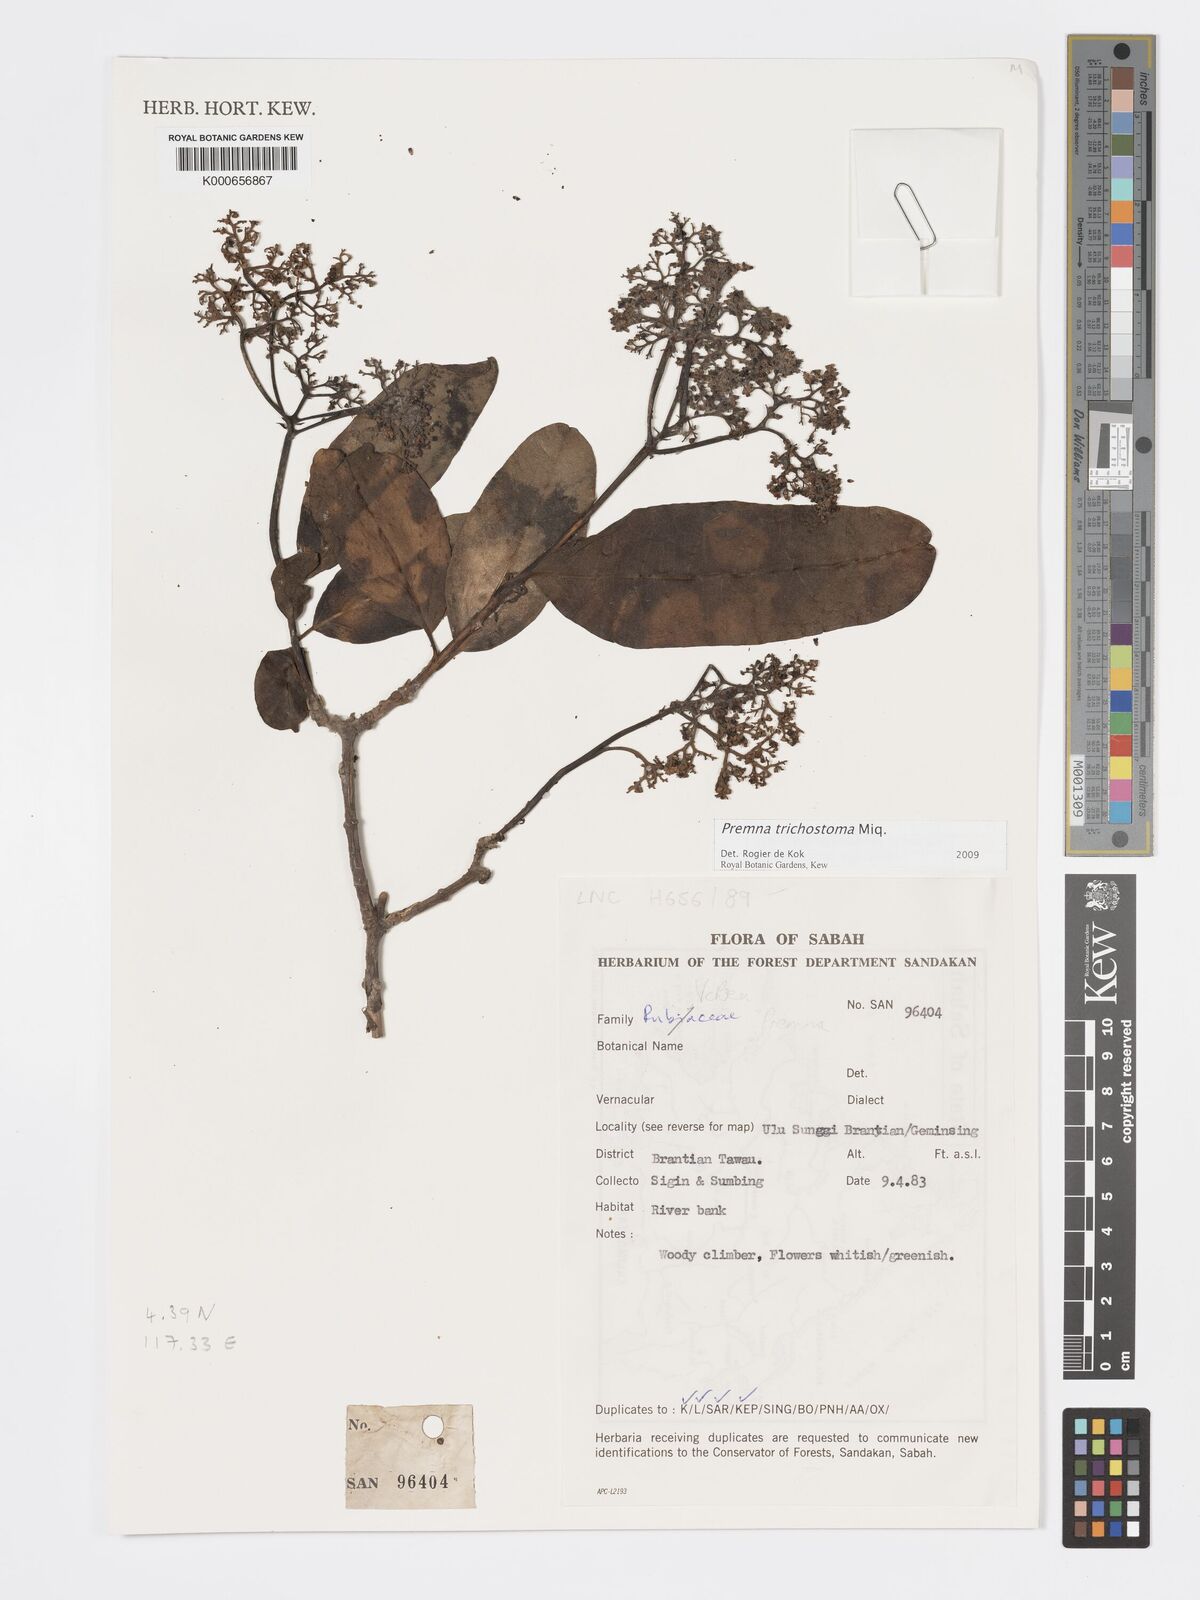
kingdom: Plantae
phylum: Tracheophyta
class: Magnoliopsida
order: Lamiales
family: Lamiaceae
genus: Premna
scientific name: Premna trichostoma
